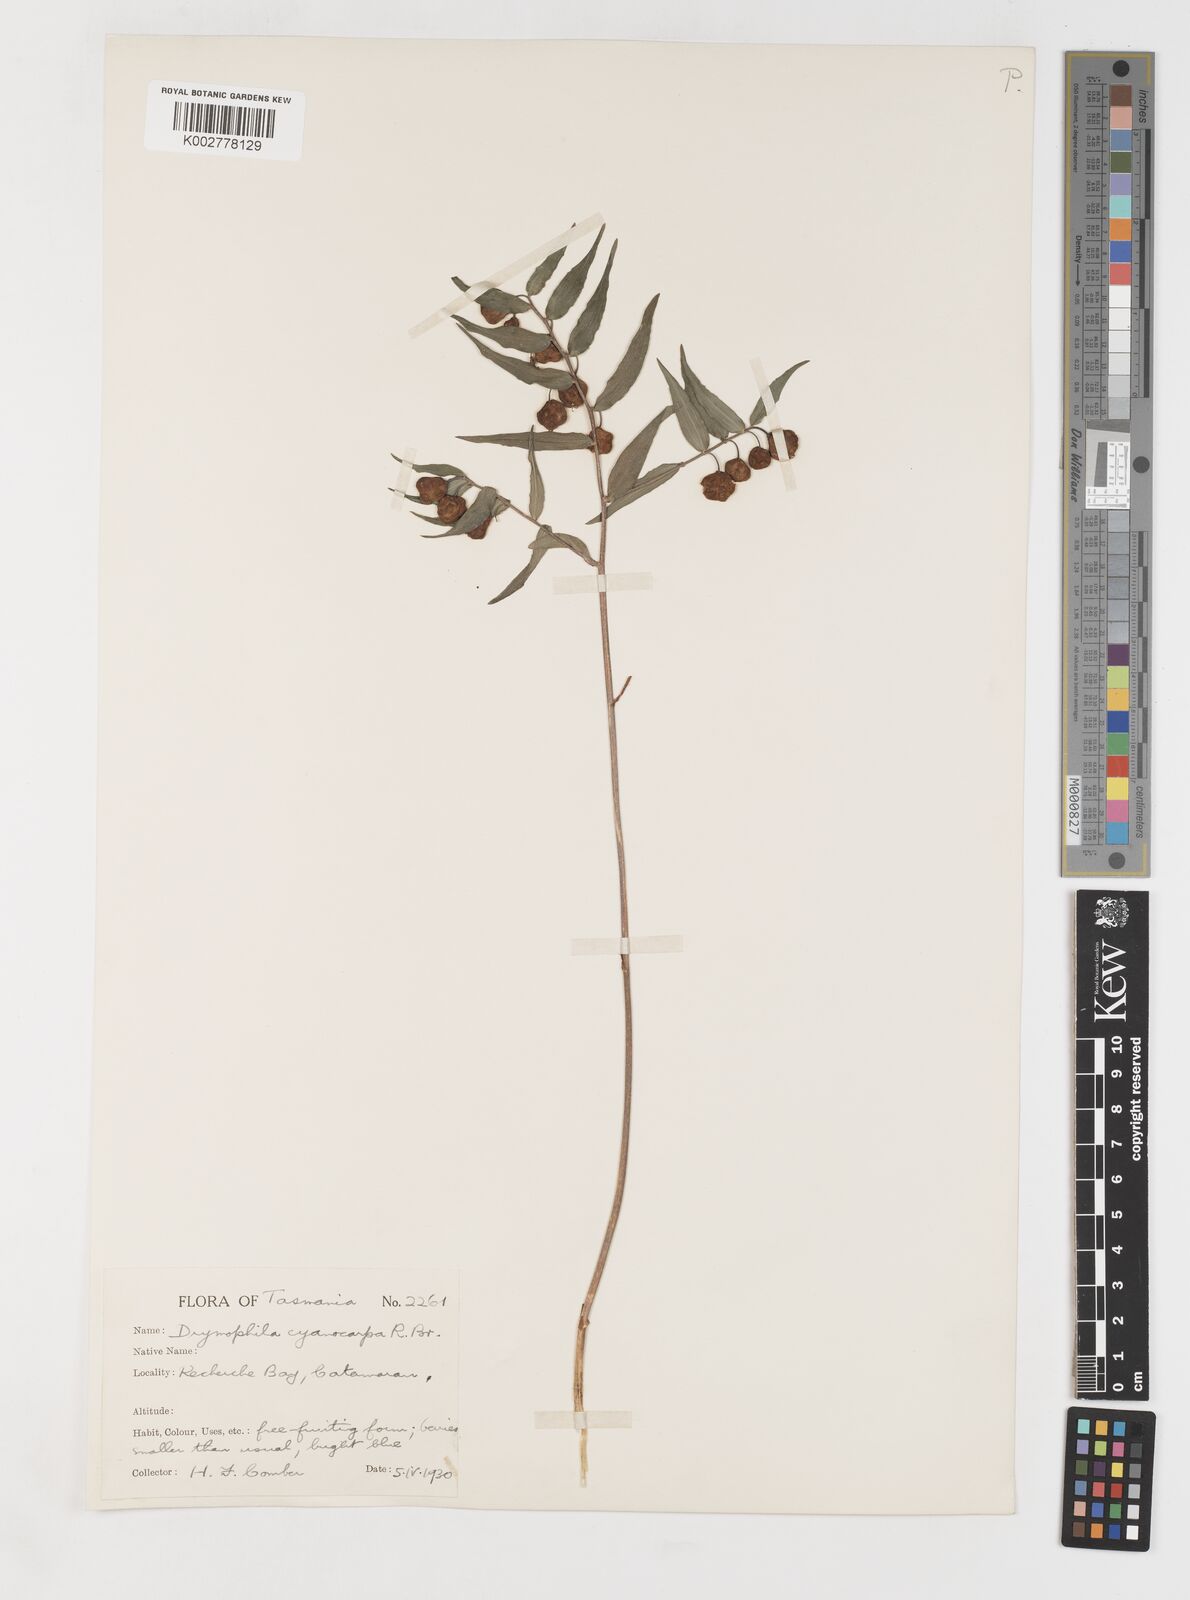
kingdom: Plantae
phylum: Tracheophyta
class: Liliopsida
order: Liliales
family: Alstroemeriaceae
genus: Drymophila
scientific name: Drymophila cyanocarpa
